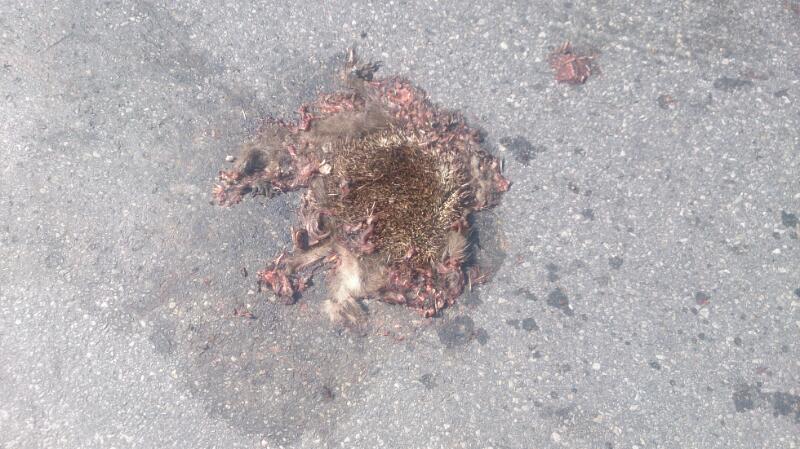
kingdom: Animalia
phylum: Chordata
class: Mammalia
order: Erinaceomorpha
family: Erinaceidae
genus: Erinaceus
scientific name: Erinaceus
